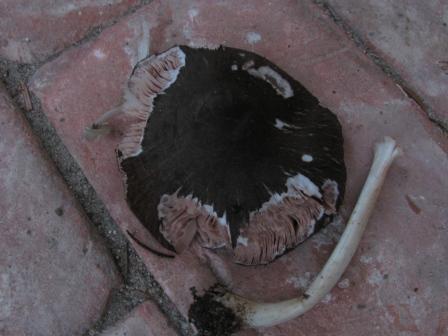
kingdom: Fungi
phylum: Basidiomycota
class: Agaricomycetes
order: Agaricales
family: Pluteaceae
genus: Pluteus
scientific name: Pluteus
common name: gråfibret skærmhat
